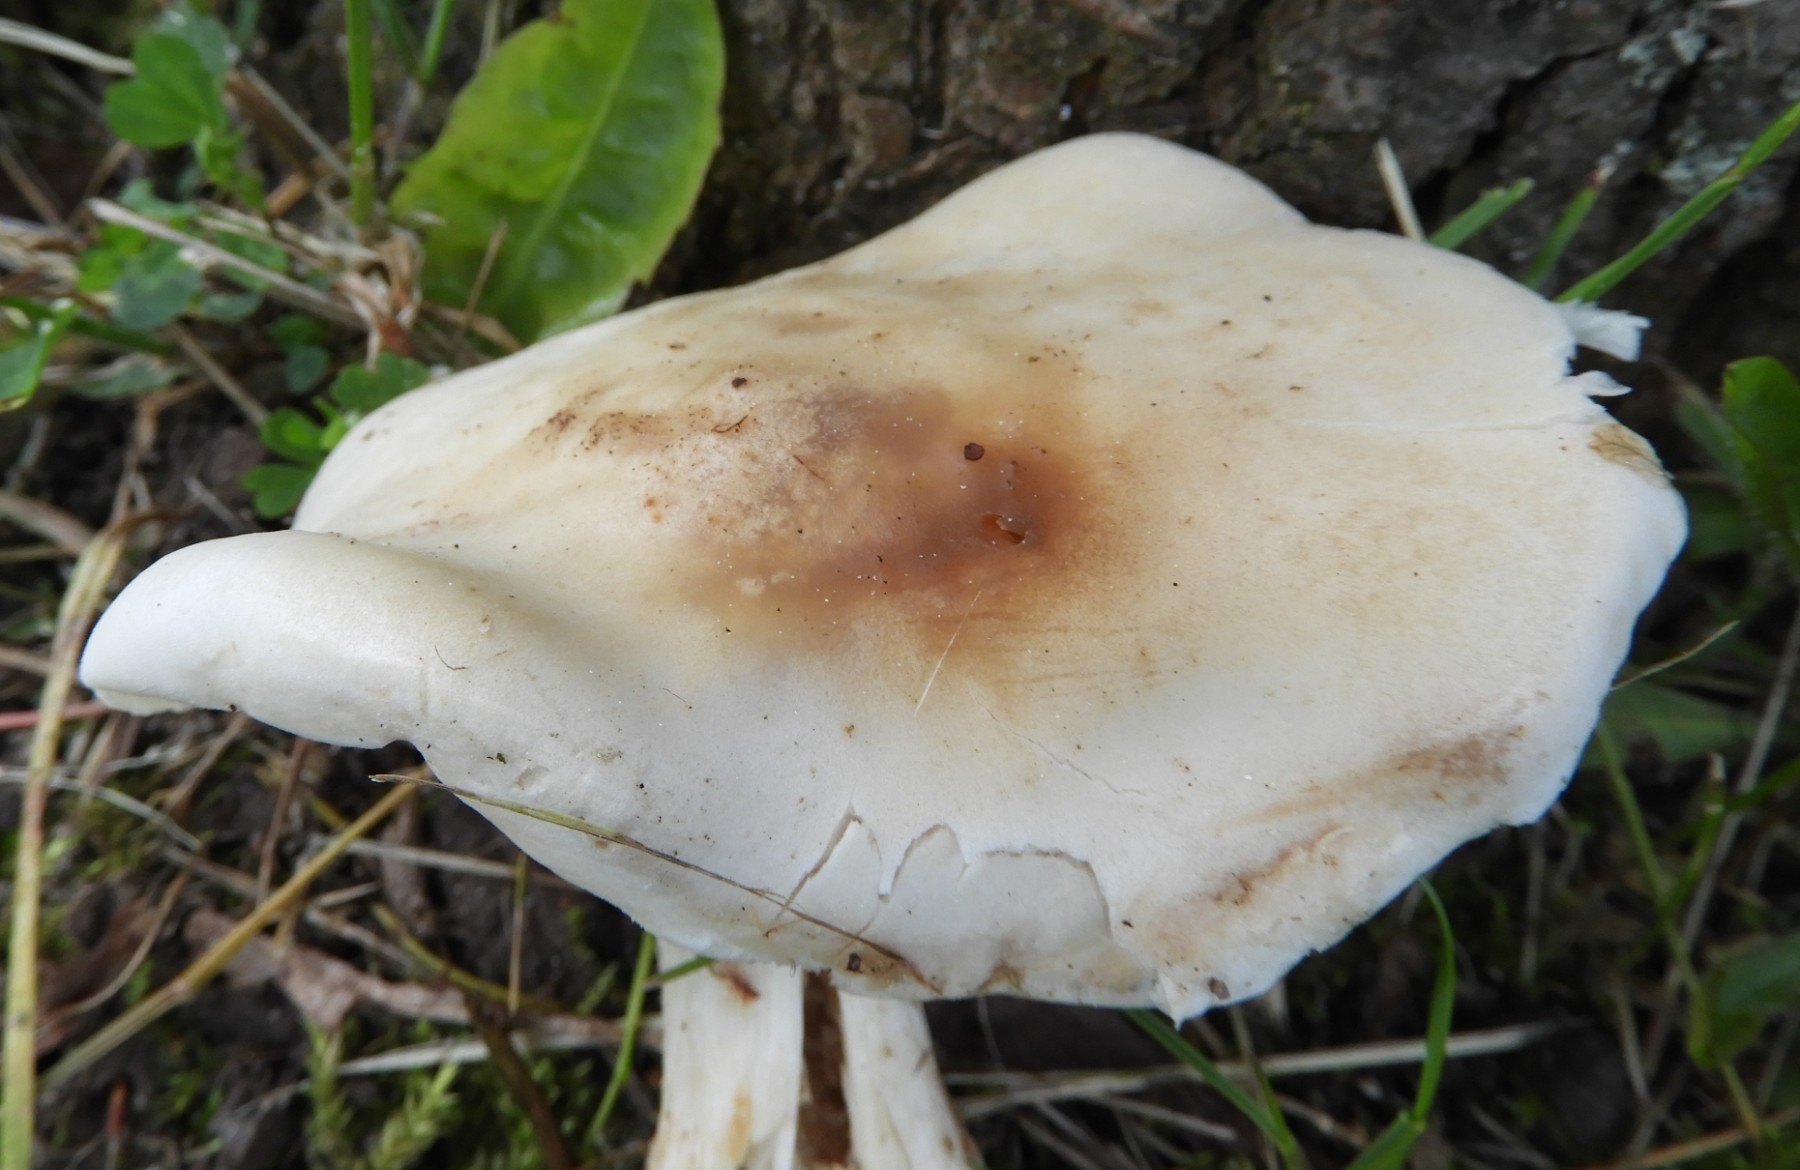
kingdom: Fungi
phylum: Basidiomycota
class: Agaricomycetes
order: Agaricales
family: Lyophyllaceae
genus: Calocybe
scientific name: Calocybe gambosa
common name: vårmusseron
